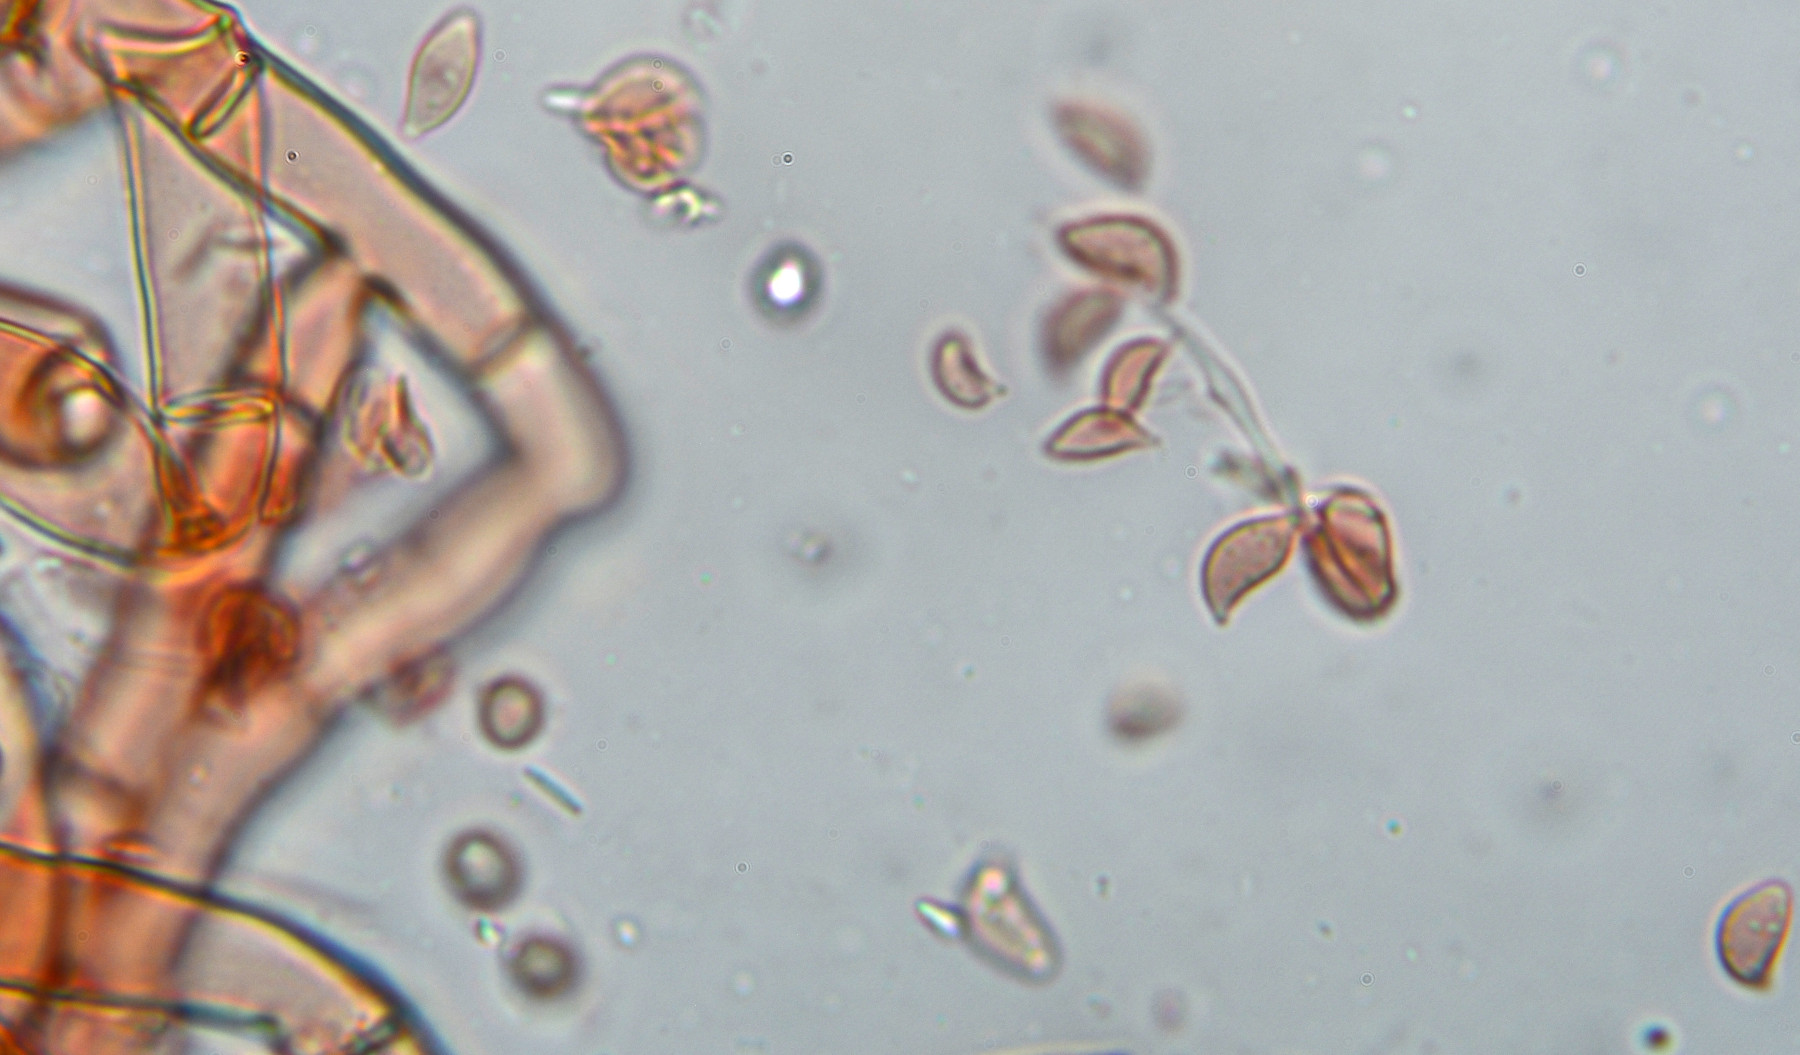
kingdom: Fungi
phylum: Basidiomycota
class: Agaricomycetes
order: Cantharellales
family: Botryobasidiaceae
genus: Botryobasidium
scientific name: Botryobasidium vagum
